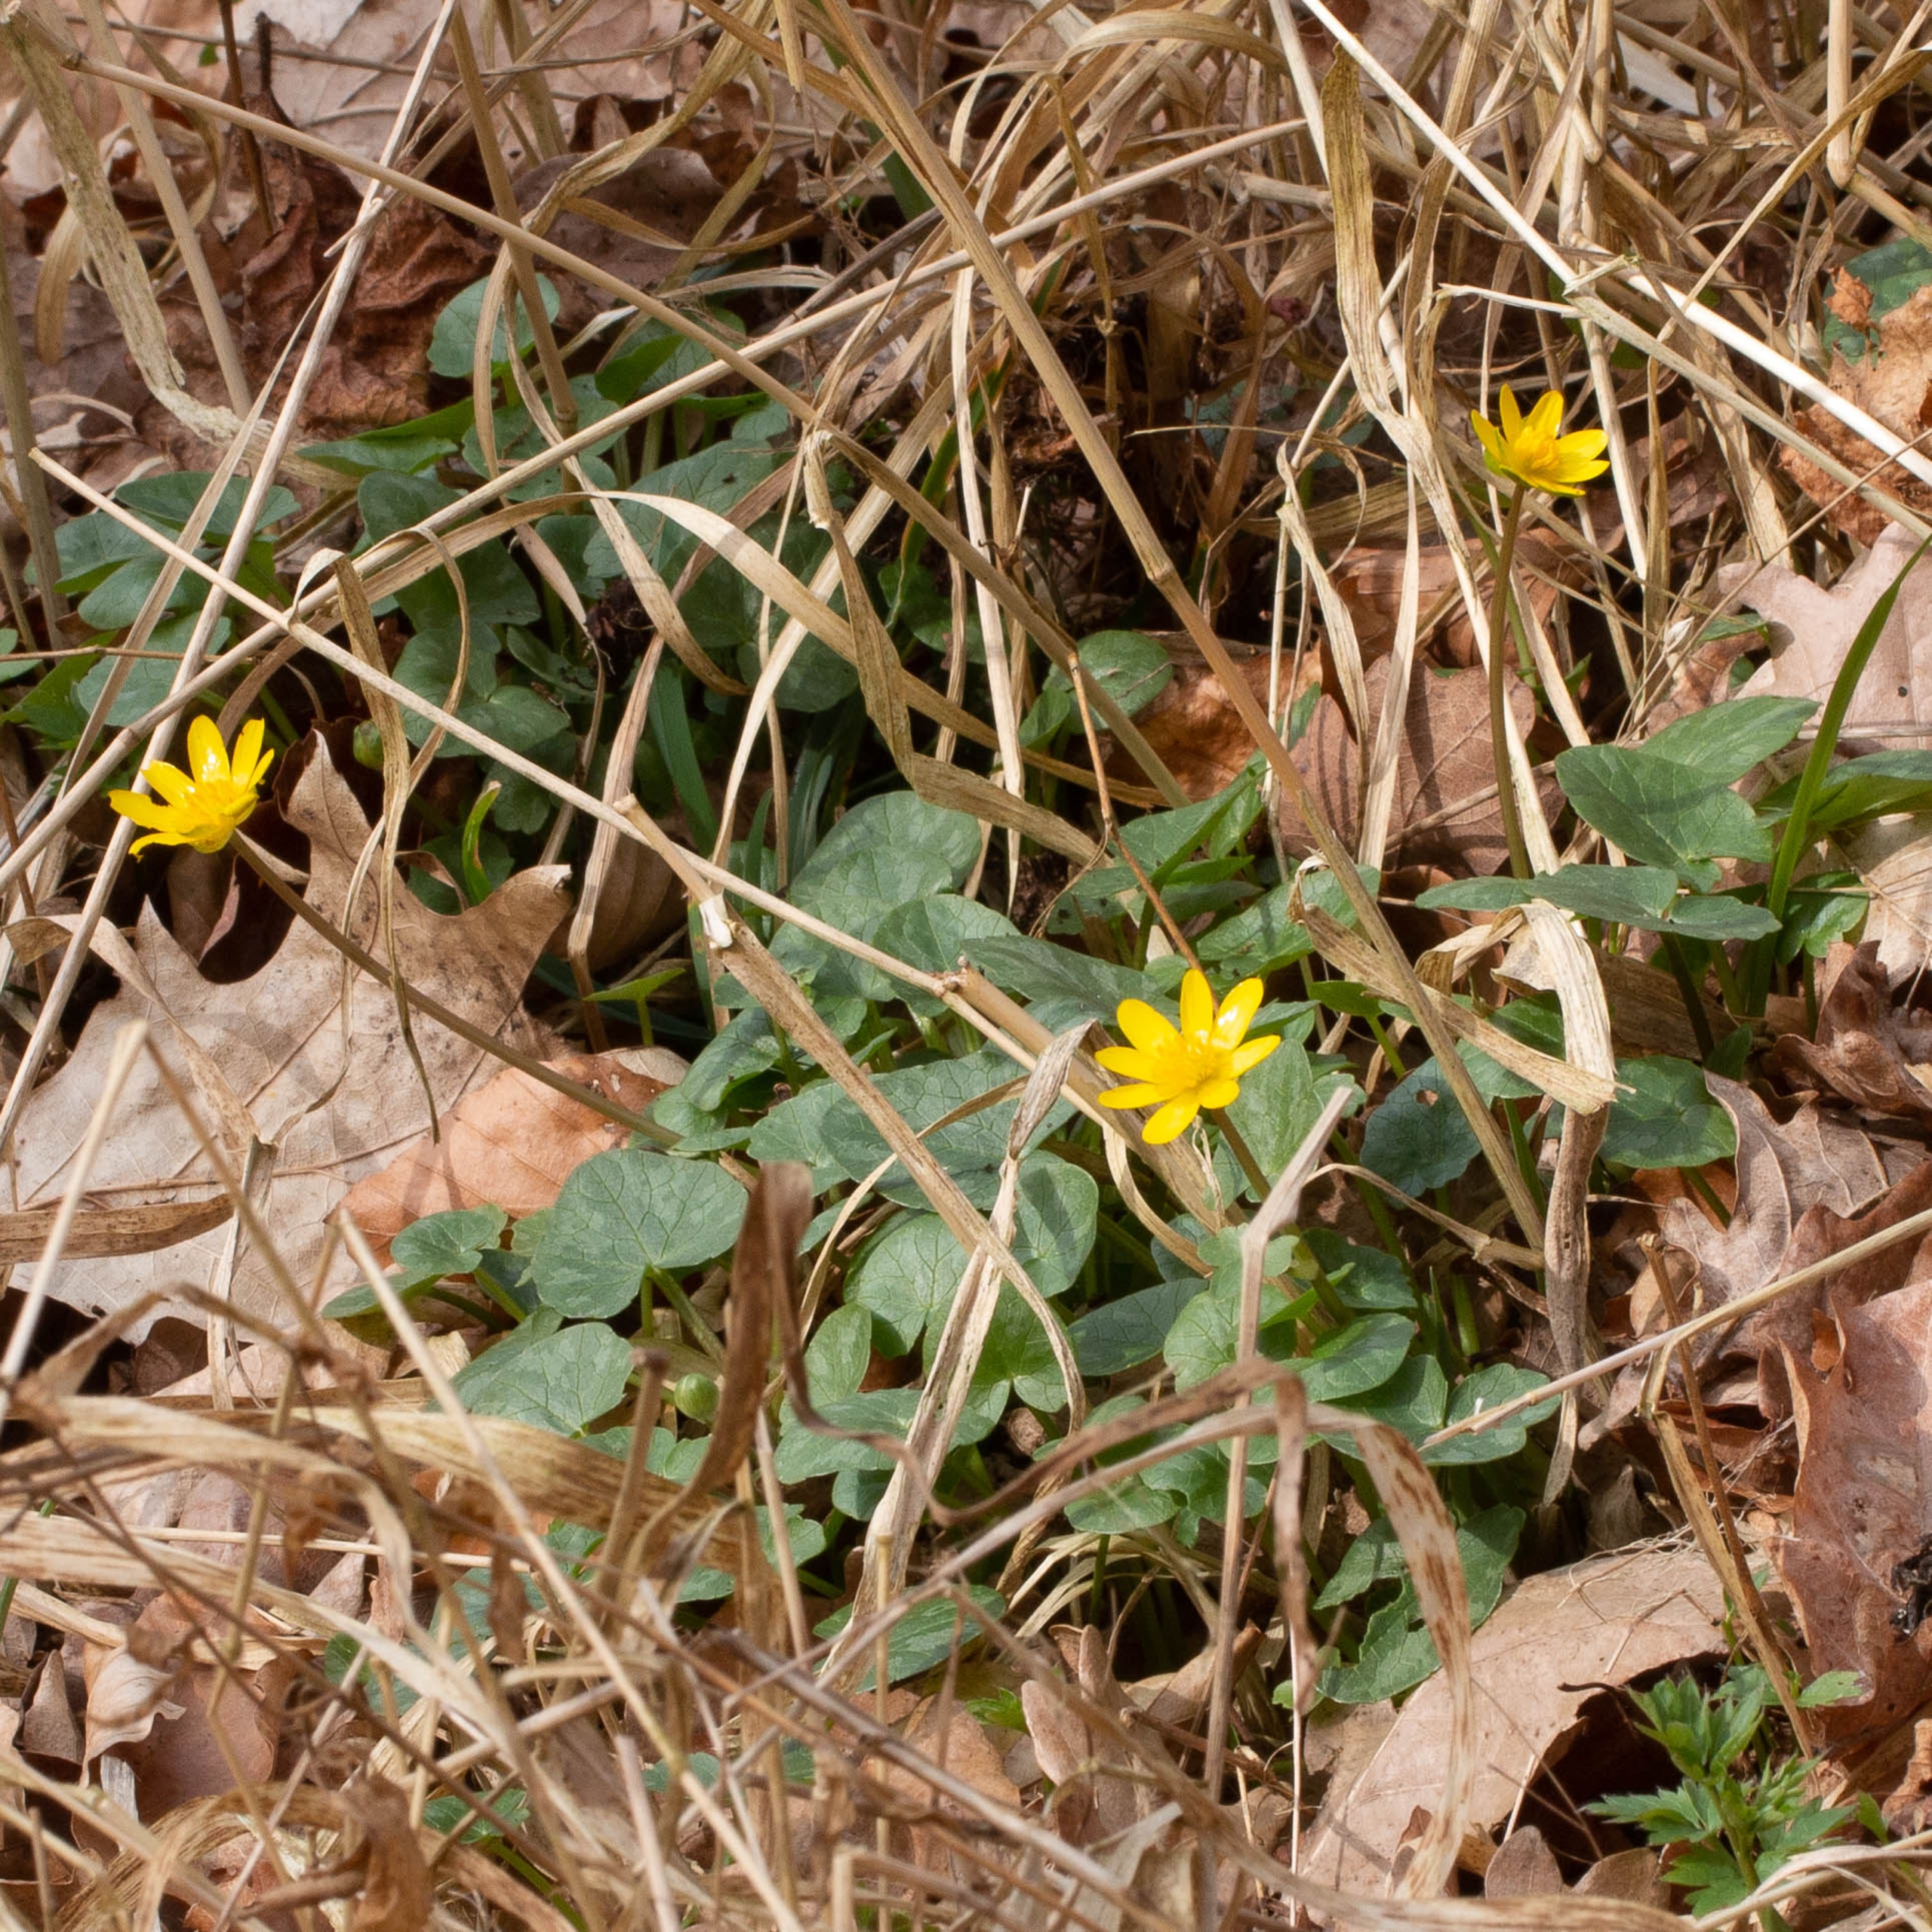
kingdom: Plantae
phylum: Tracheophyta
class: Magnoliopsida
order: Ranunculales
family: Ranunculaceae
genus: Ficaria
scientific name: Ficaria verna
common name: Vorterod
